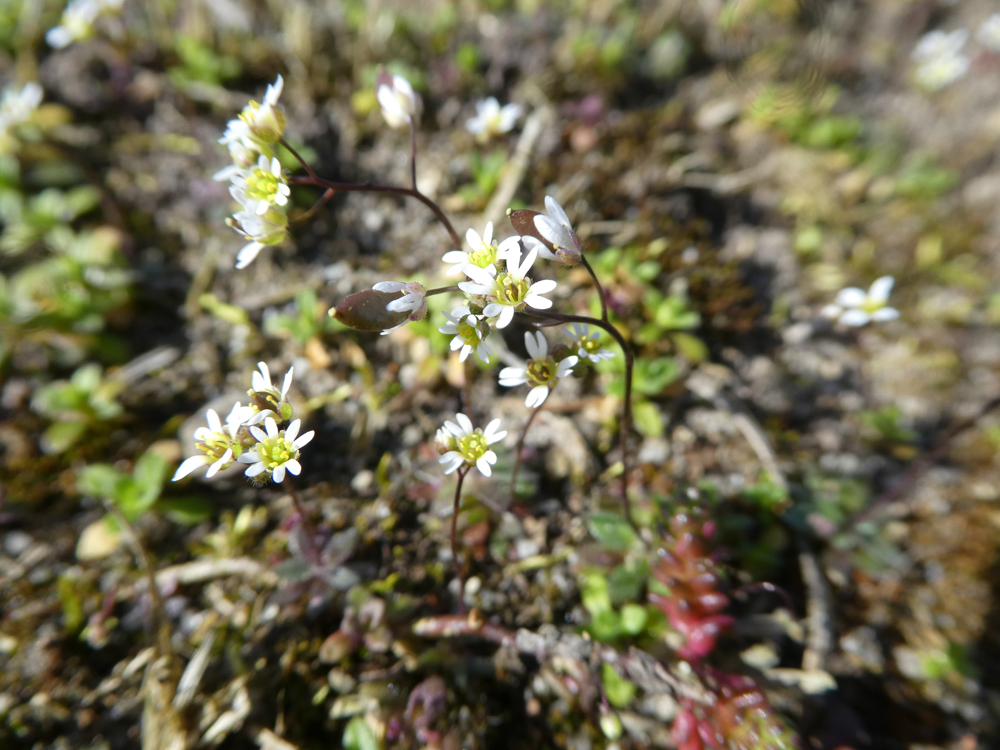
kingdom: Plantae
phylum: Tracheophyta
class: Magnoliopsida
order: Brassicales
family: Brassicaceae
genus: Draba
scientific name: Draba verna
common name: Spring draba
